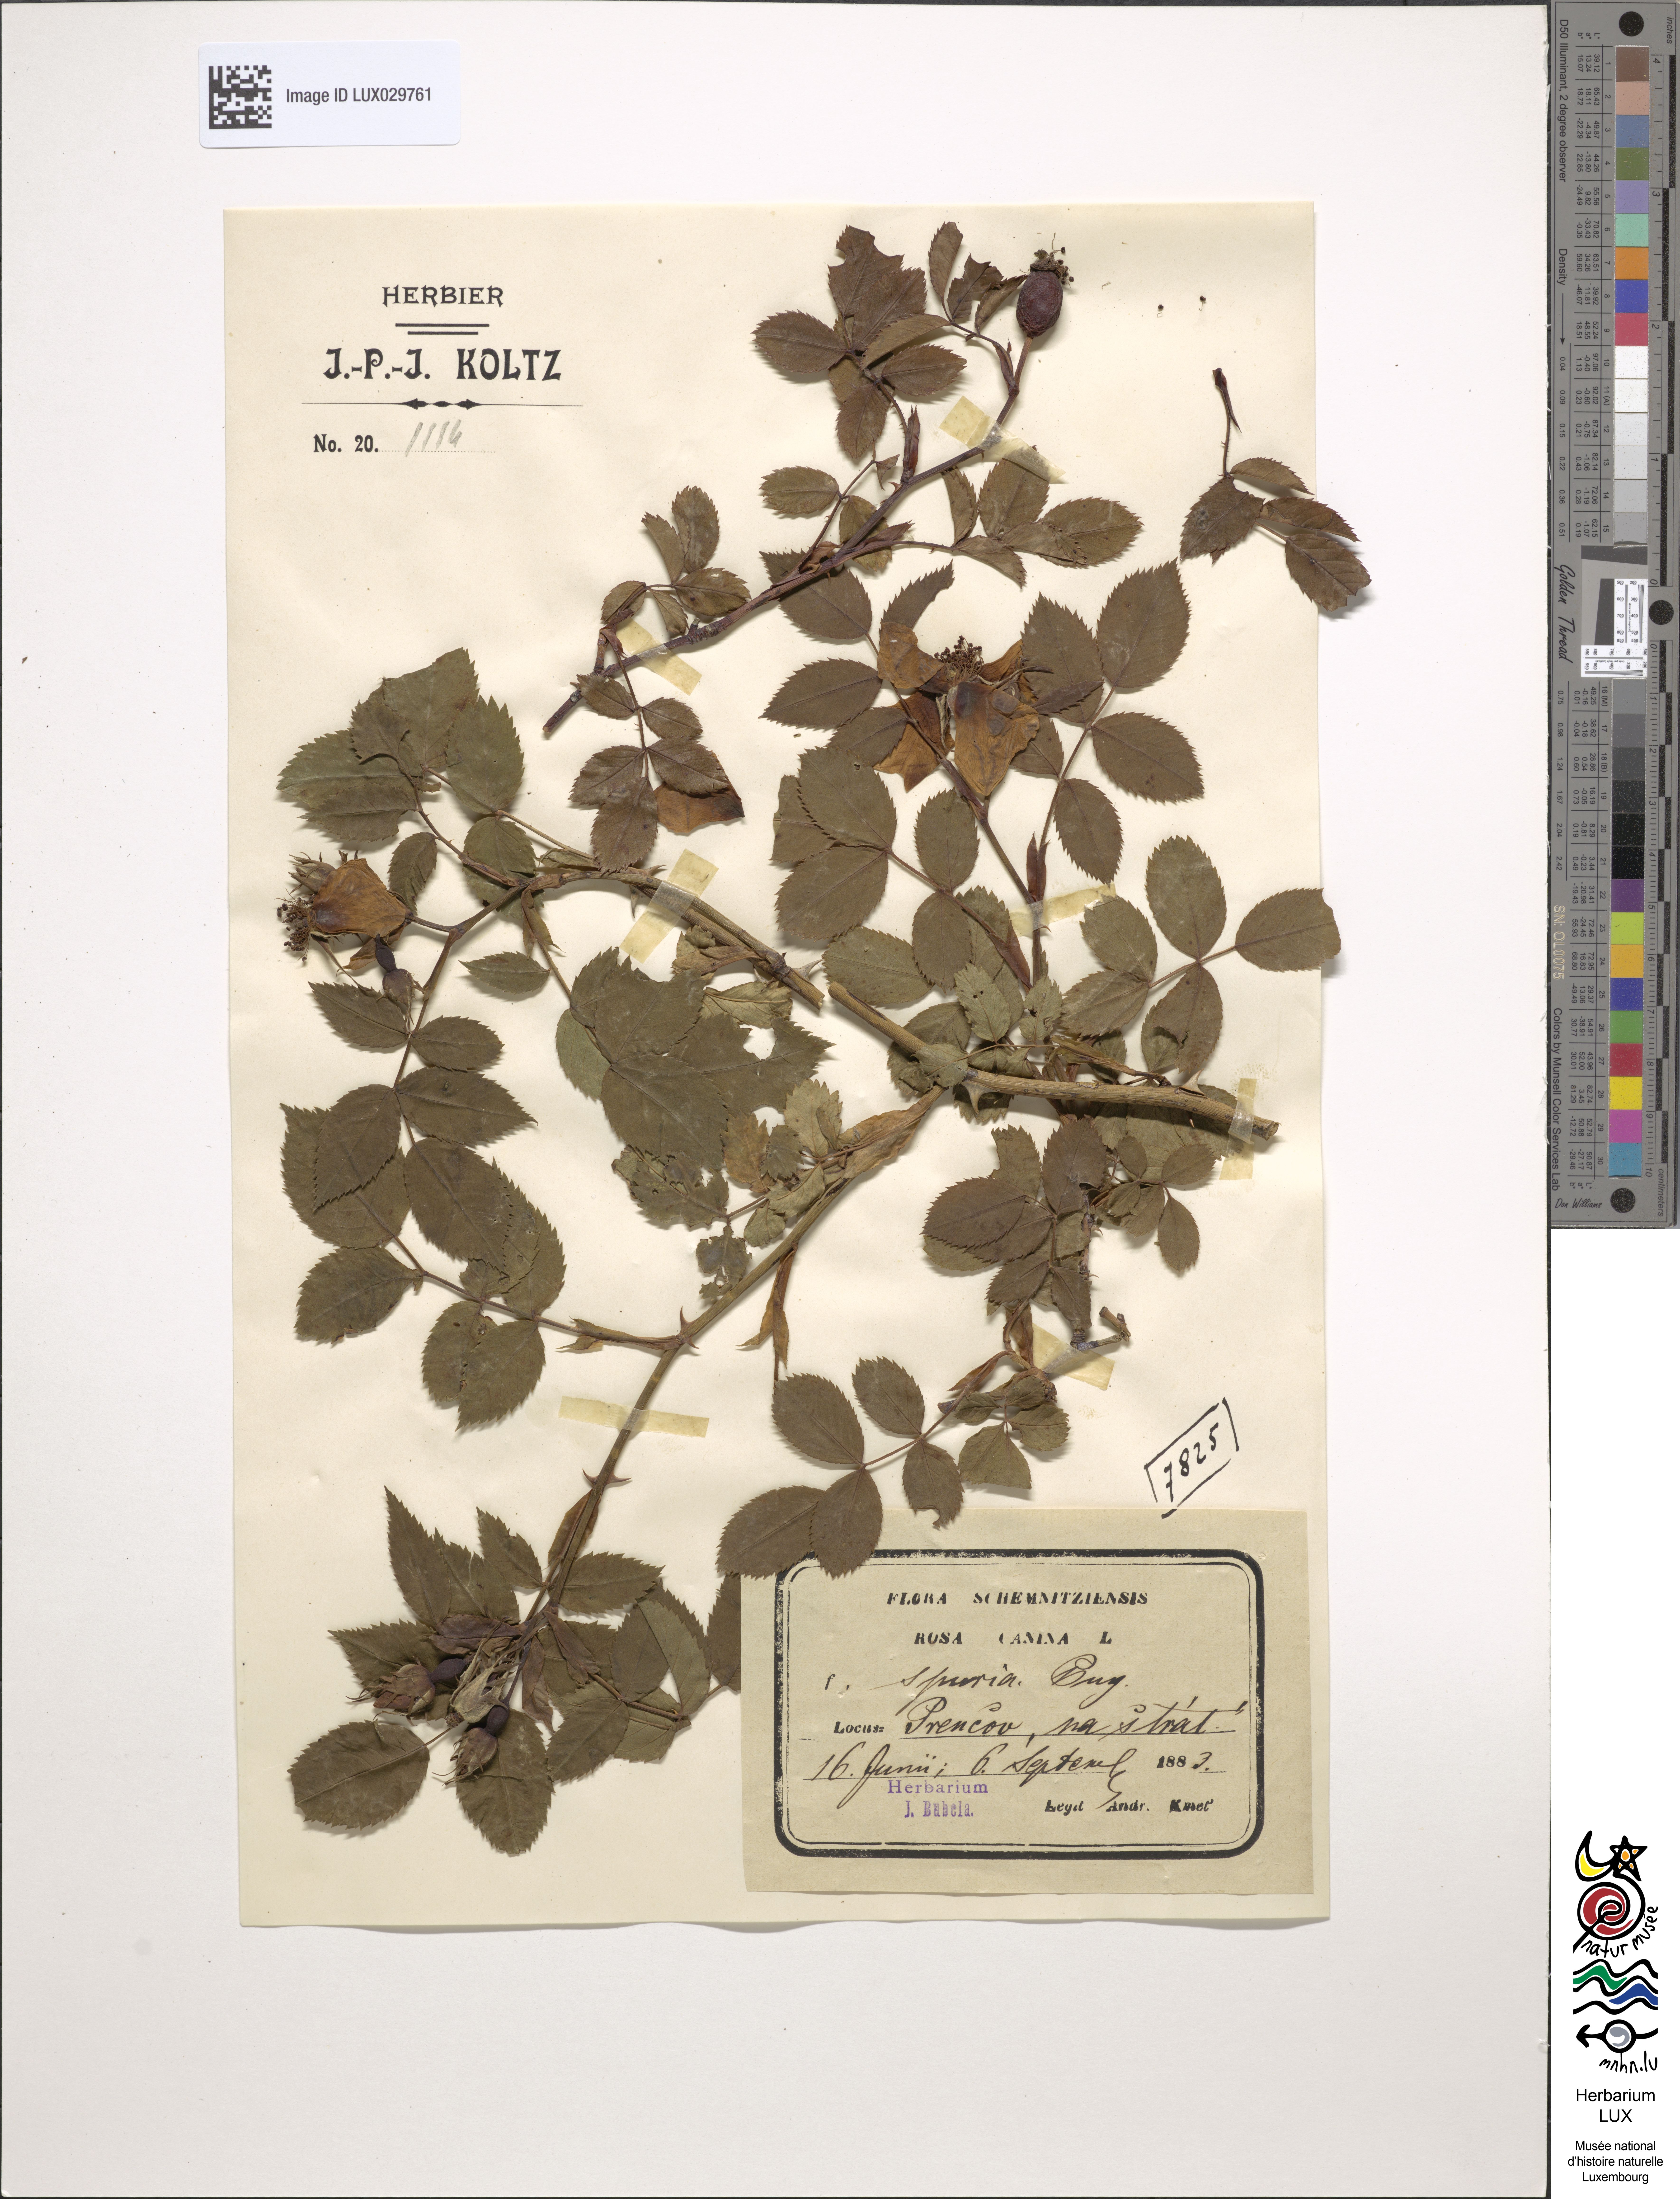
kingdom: Plantae
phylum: Tracheophyta
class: Magnoliopsida
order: Rosales
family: Rosaceae
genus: Rosa
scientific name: Rosa canina
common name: Dog rose
